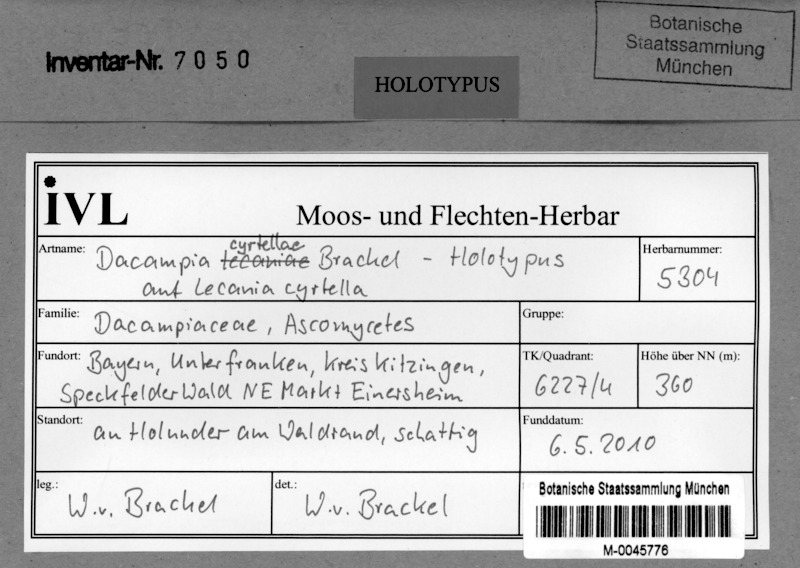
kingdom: Fungi
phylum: Ascomycota
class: Dothideomycetes
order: Pleosporales
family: Dacampiaceae
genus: Dacampia
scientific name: Dacampia cyrtellae
